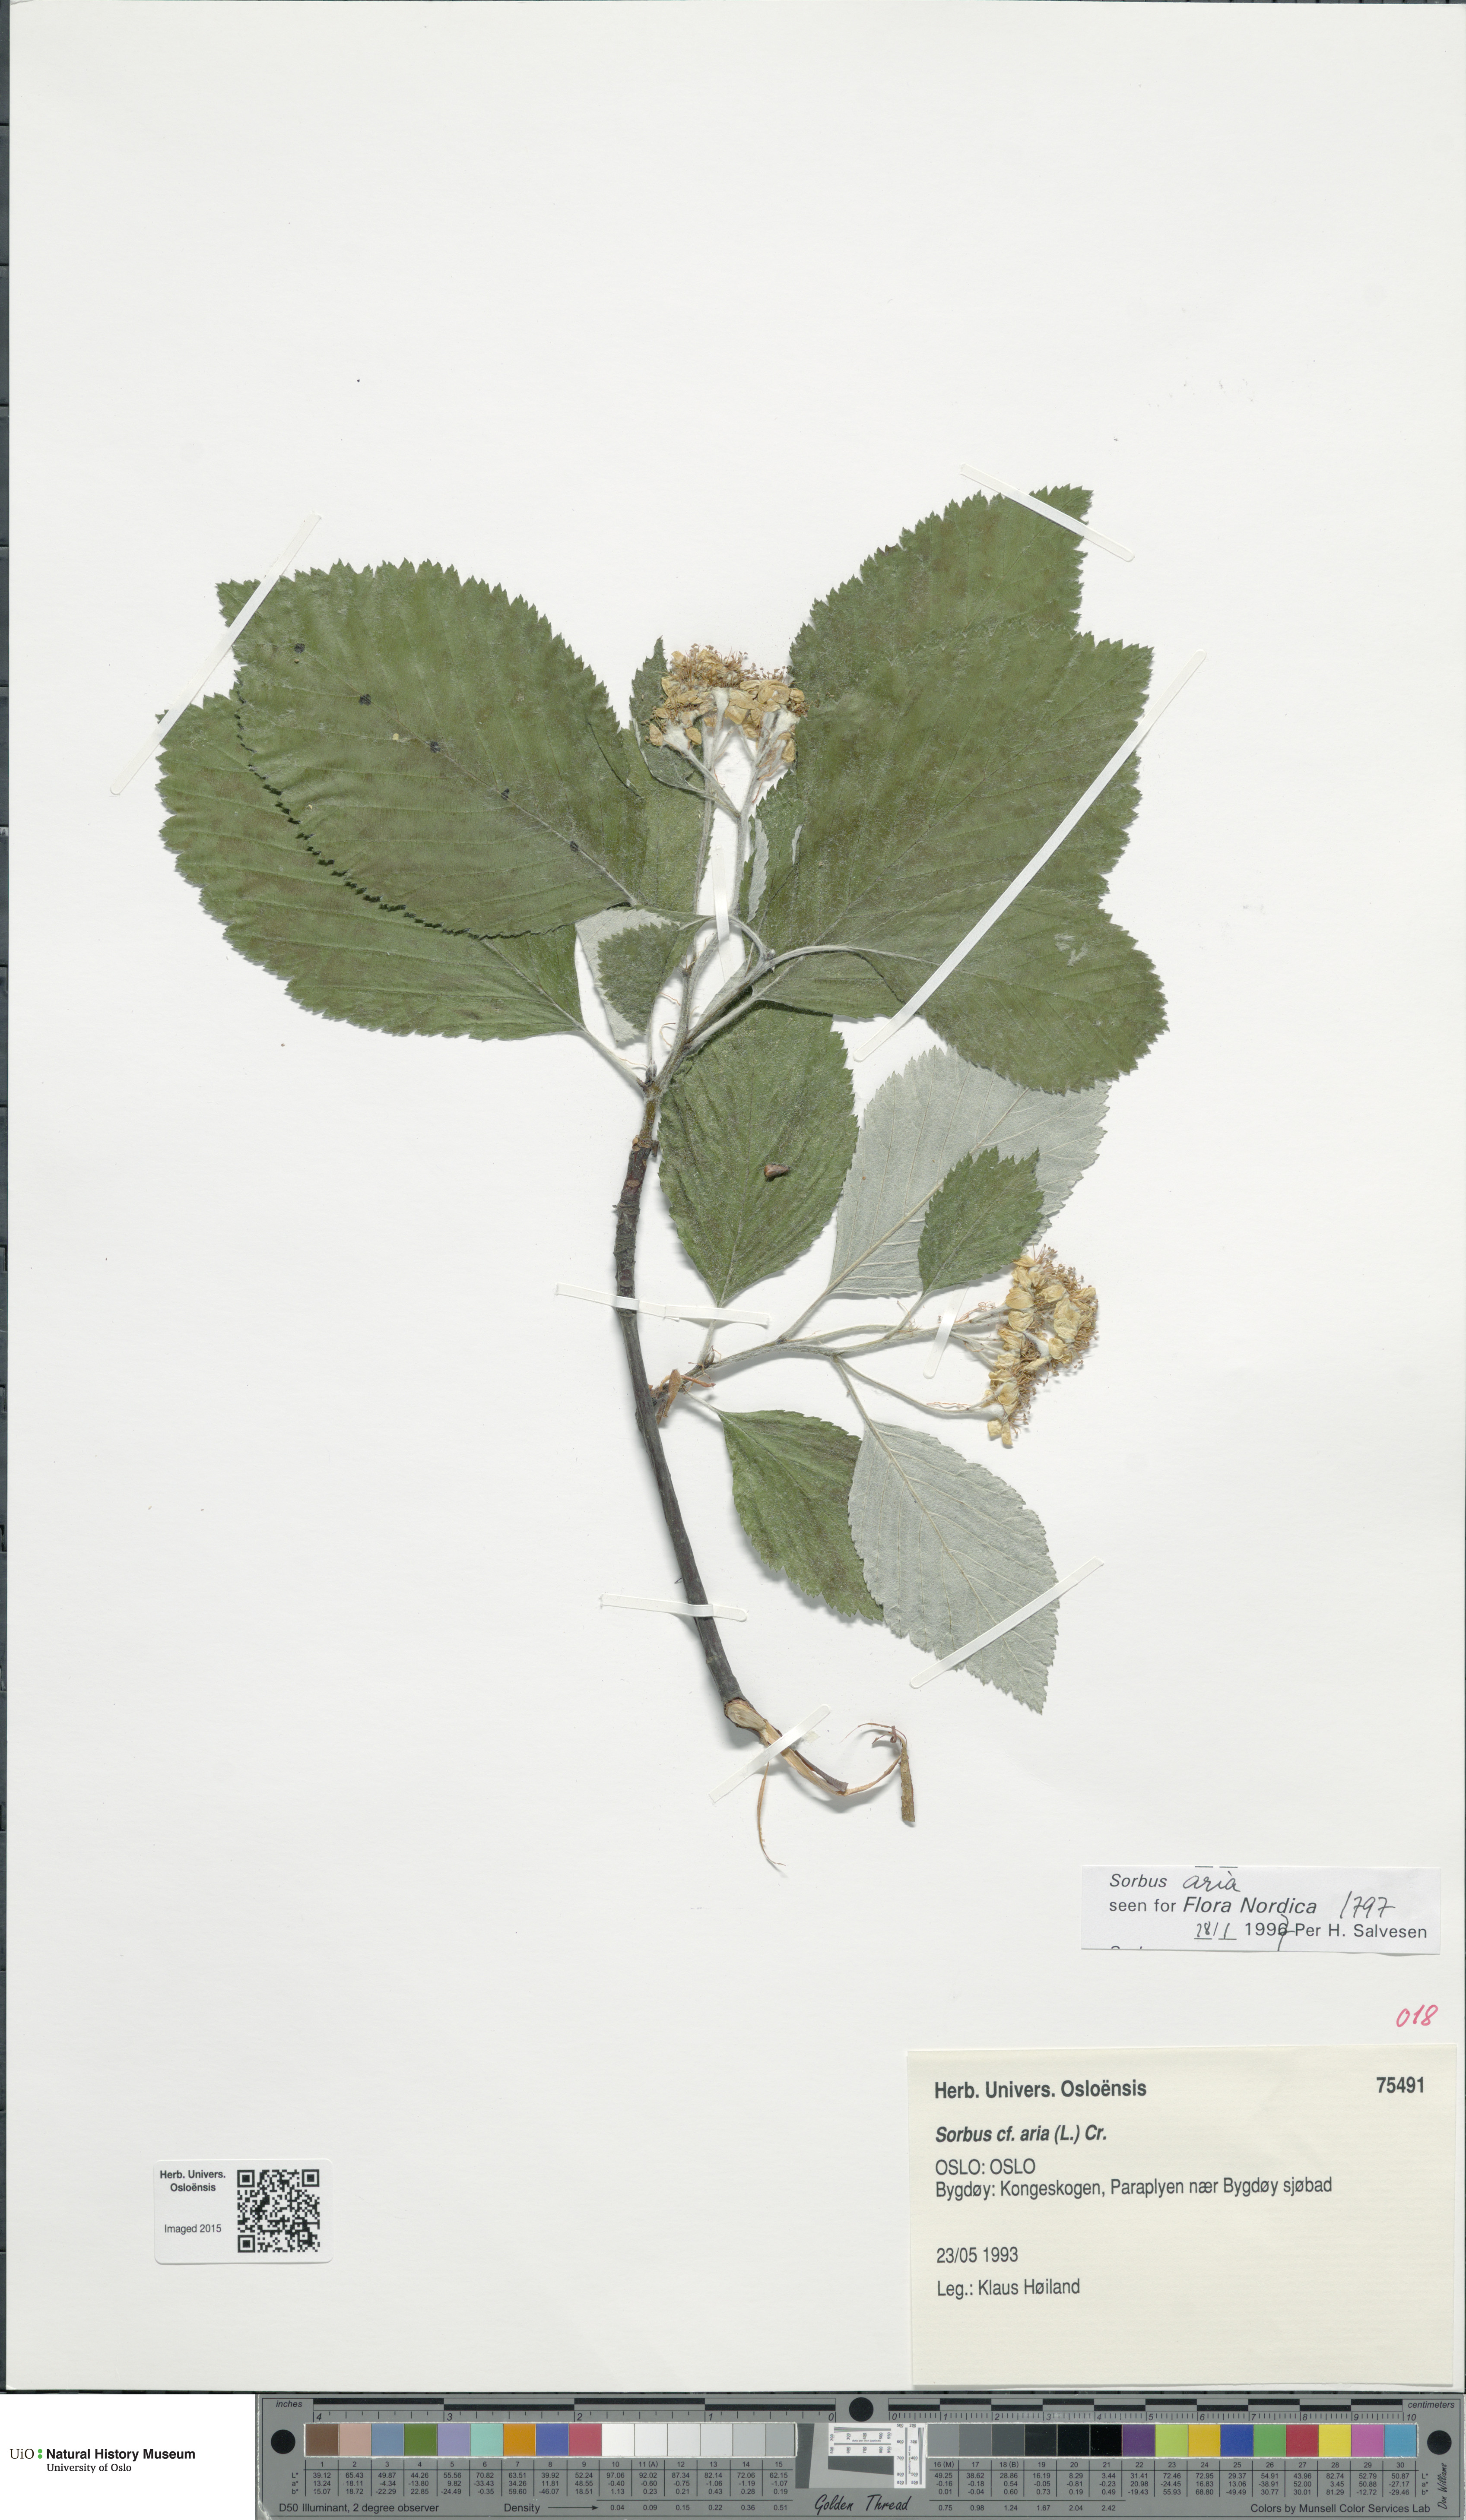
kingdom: Plantae
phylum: Tracheophyta
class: Magnoliopsida
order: Rosales
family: Rosaceae
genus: Aria
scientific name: Aria edulis
